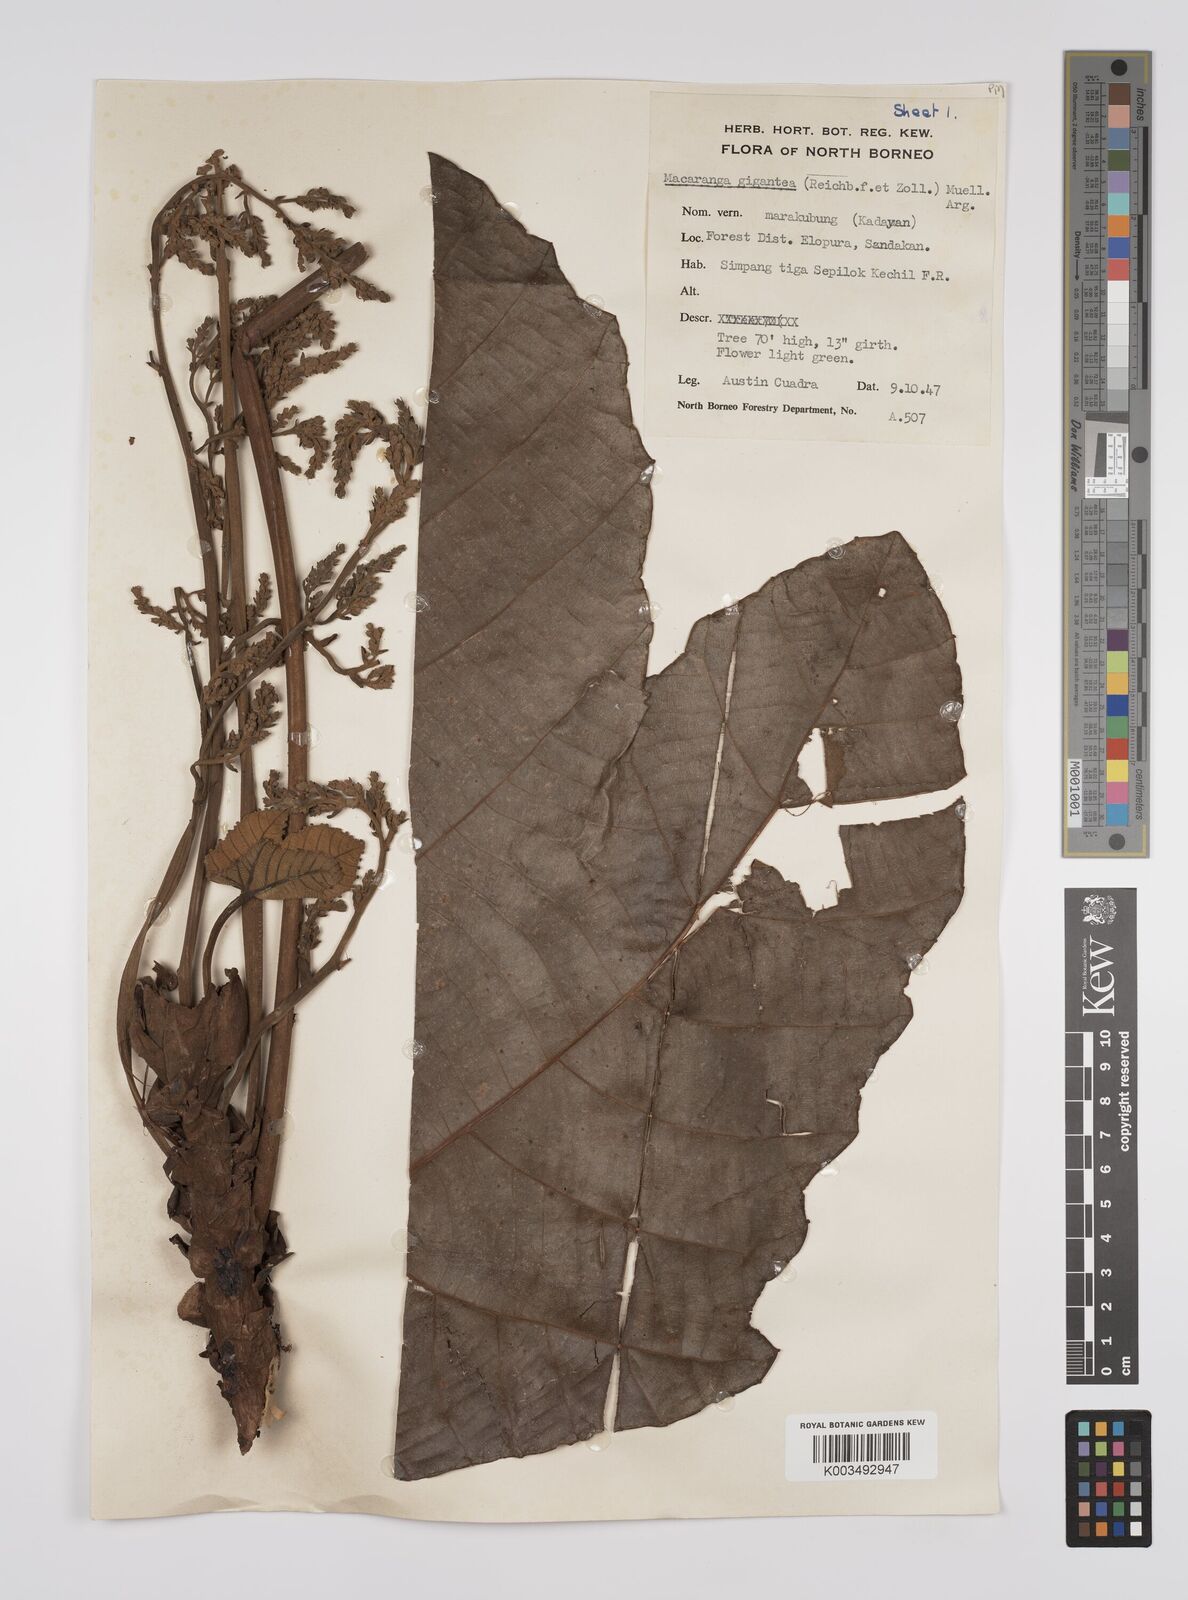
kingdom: Plantae
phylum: Tracheophyta
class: Magnoliopsida
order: Malpighiales
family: Euphorbiaceae
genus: Macaranga
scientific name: Macaranga gigantea
